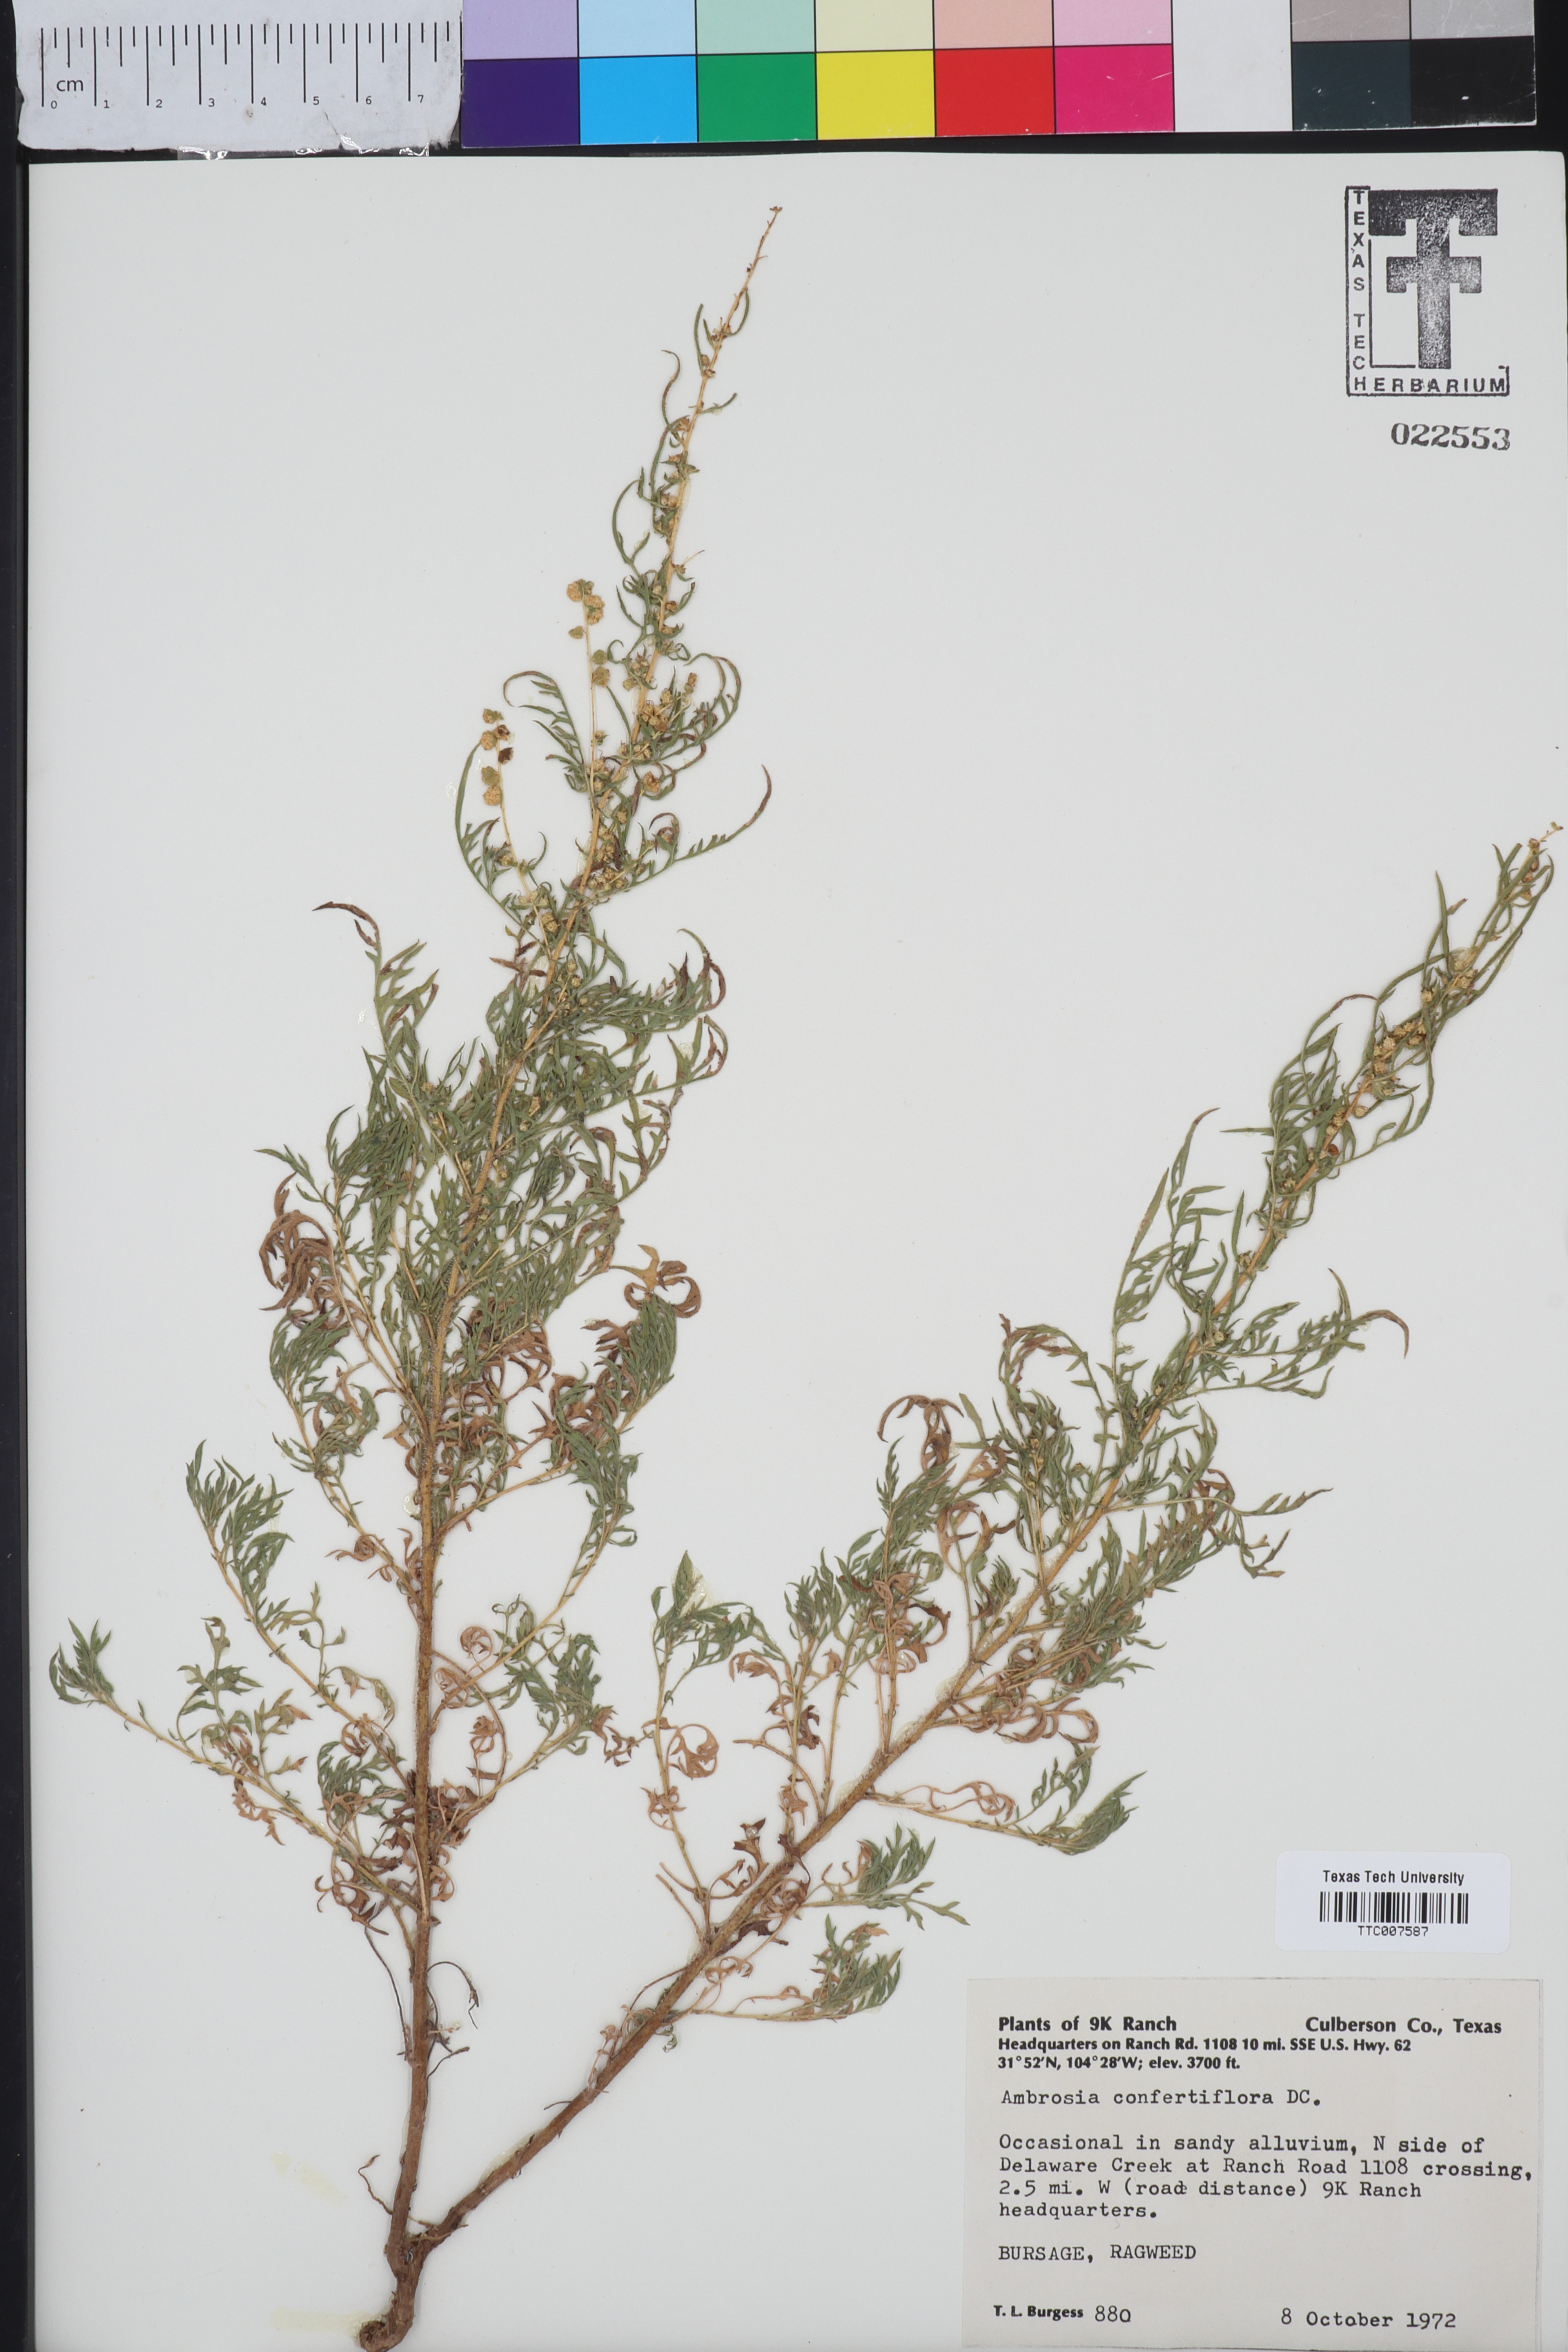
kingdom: Plantae
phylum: Tracheophyta
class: Magnoliopsida
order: Asterales
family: Asteraceae
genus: Ambrosia
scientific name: Ambrosia confertiflora
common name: Bur ragweed
